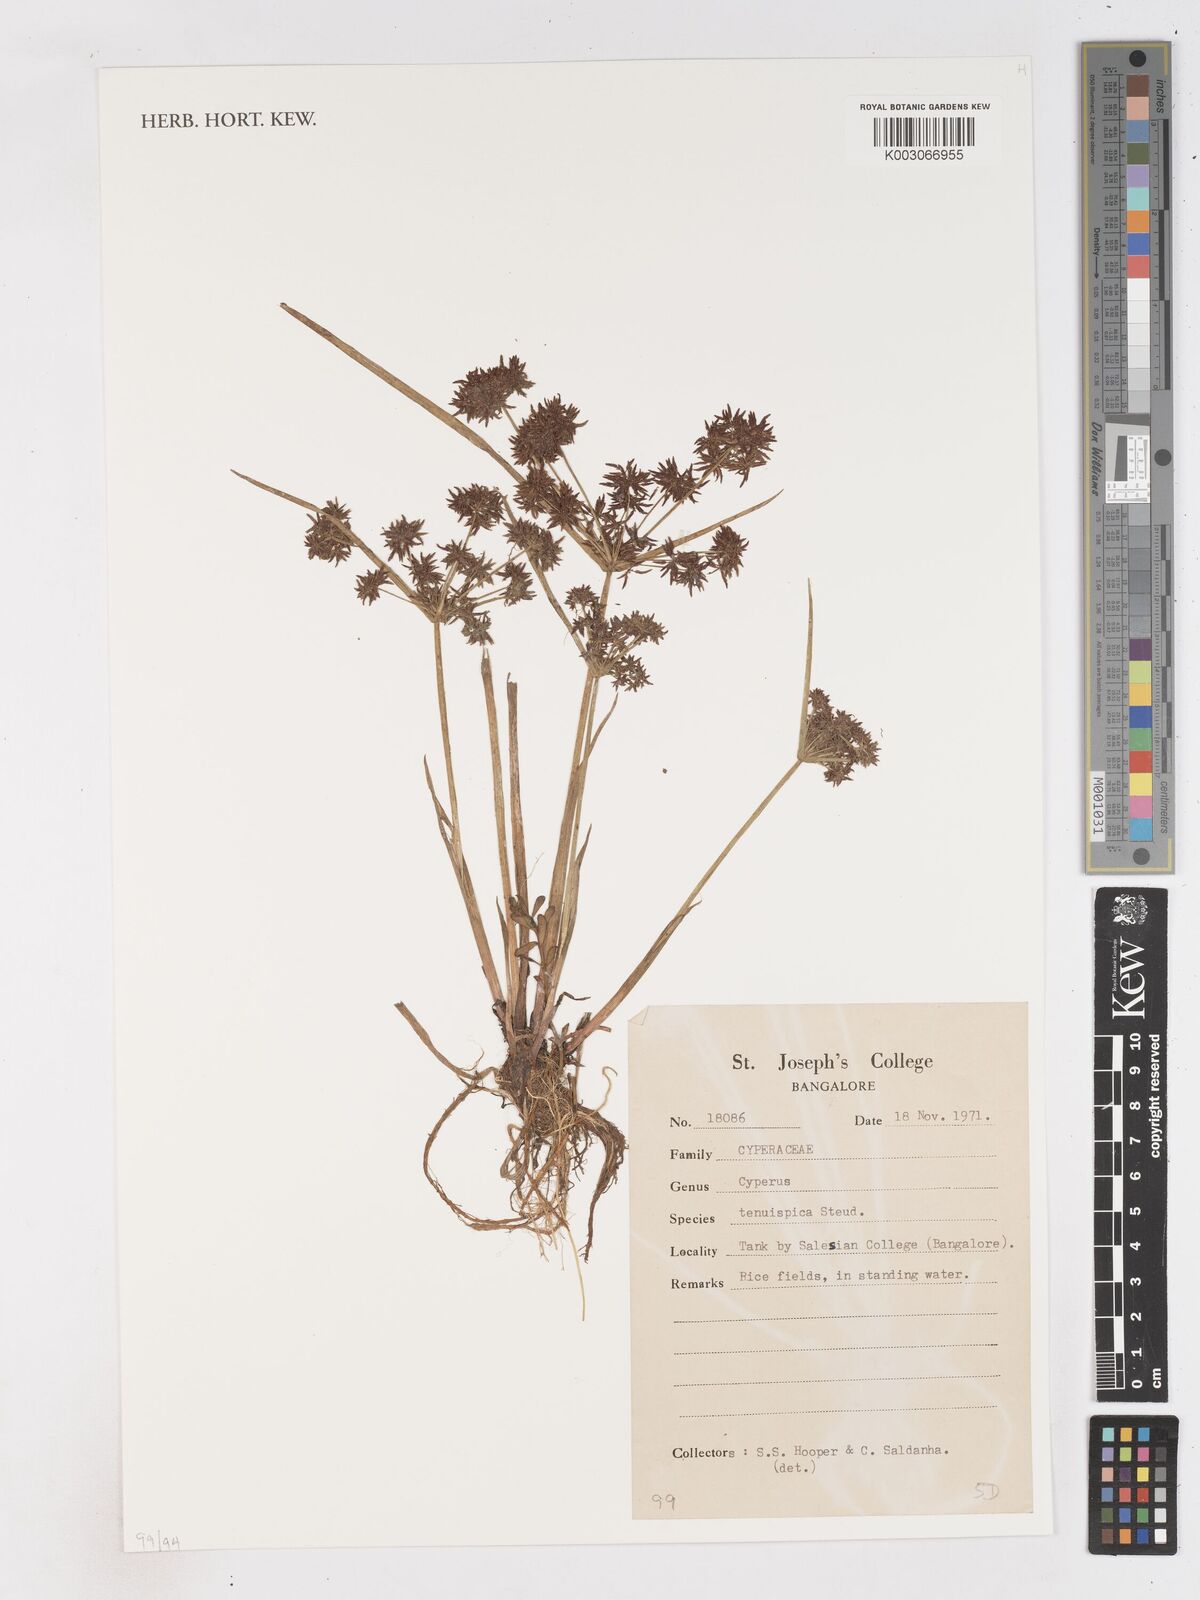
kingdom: Plantae
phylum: Tracheophyta
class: Liliopsida
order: Poales
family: Cyperaceae
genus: Cyperus
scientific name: Cyperus tenuispica
